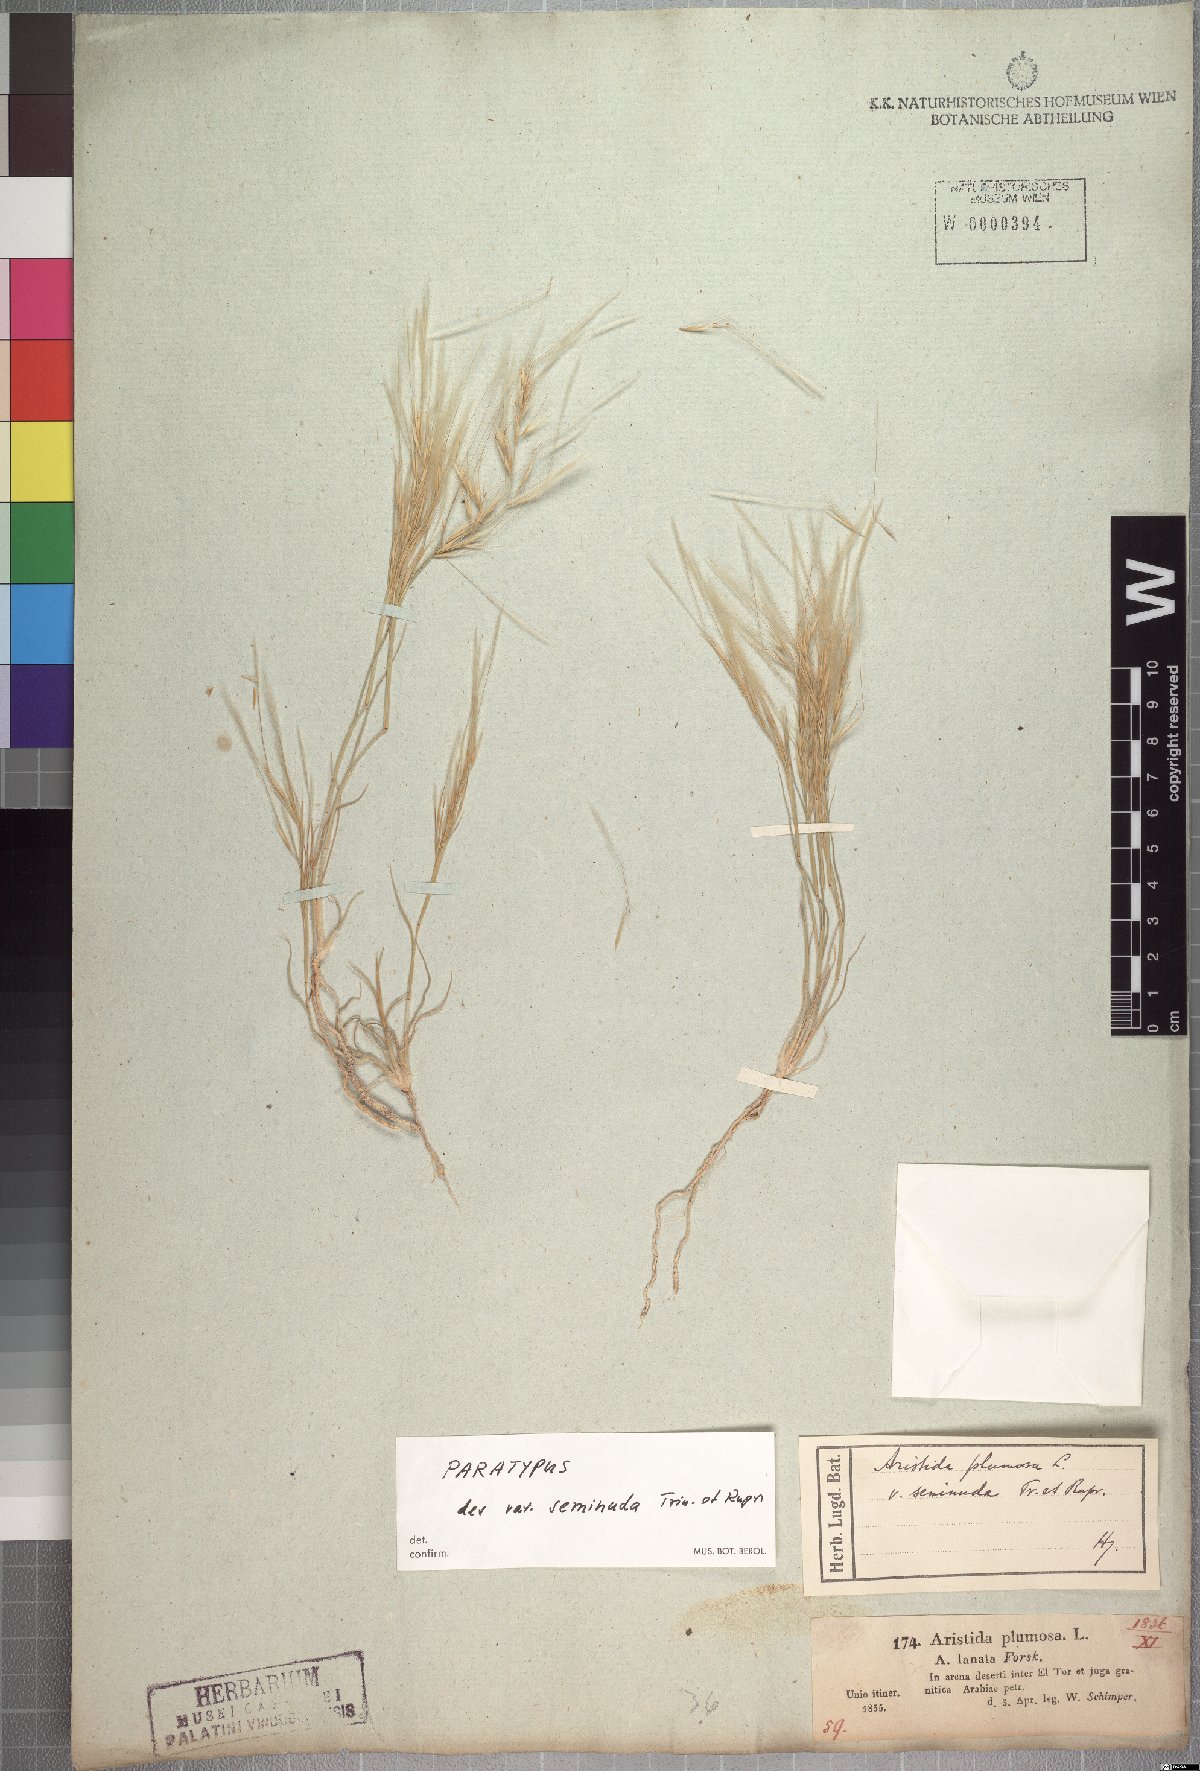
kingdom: Plantae
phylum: Tracheophyta
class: Liliopsida
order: Poales
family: Poaceae
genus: Stipagrostis
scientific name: Stipagrostis plumosa
